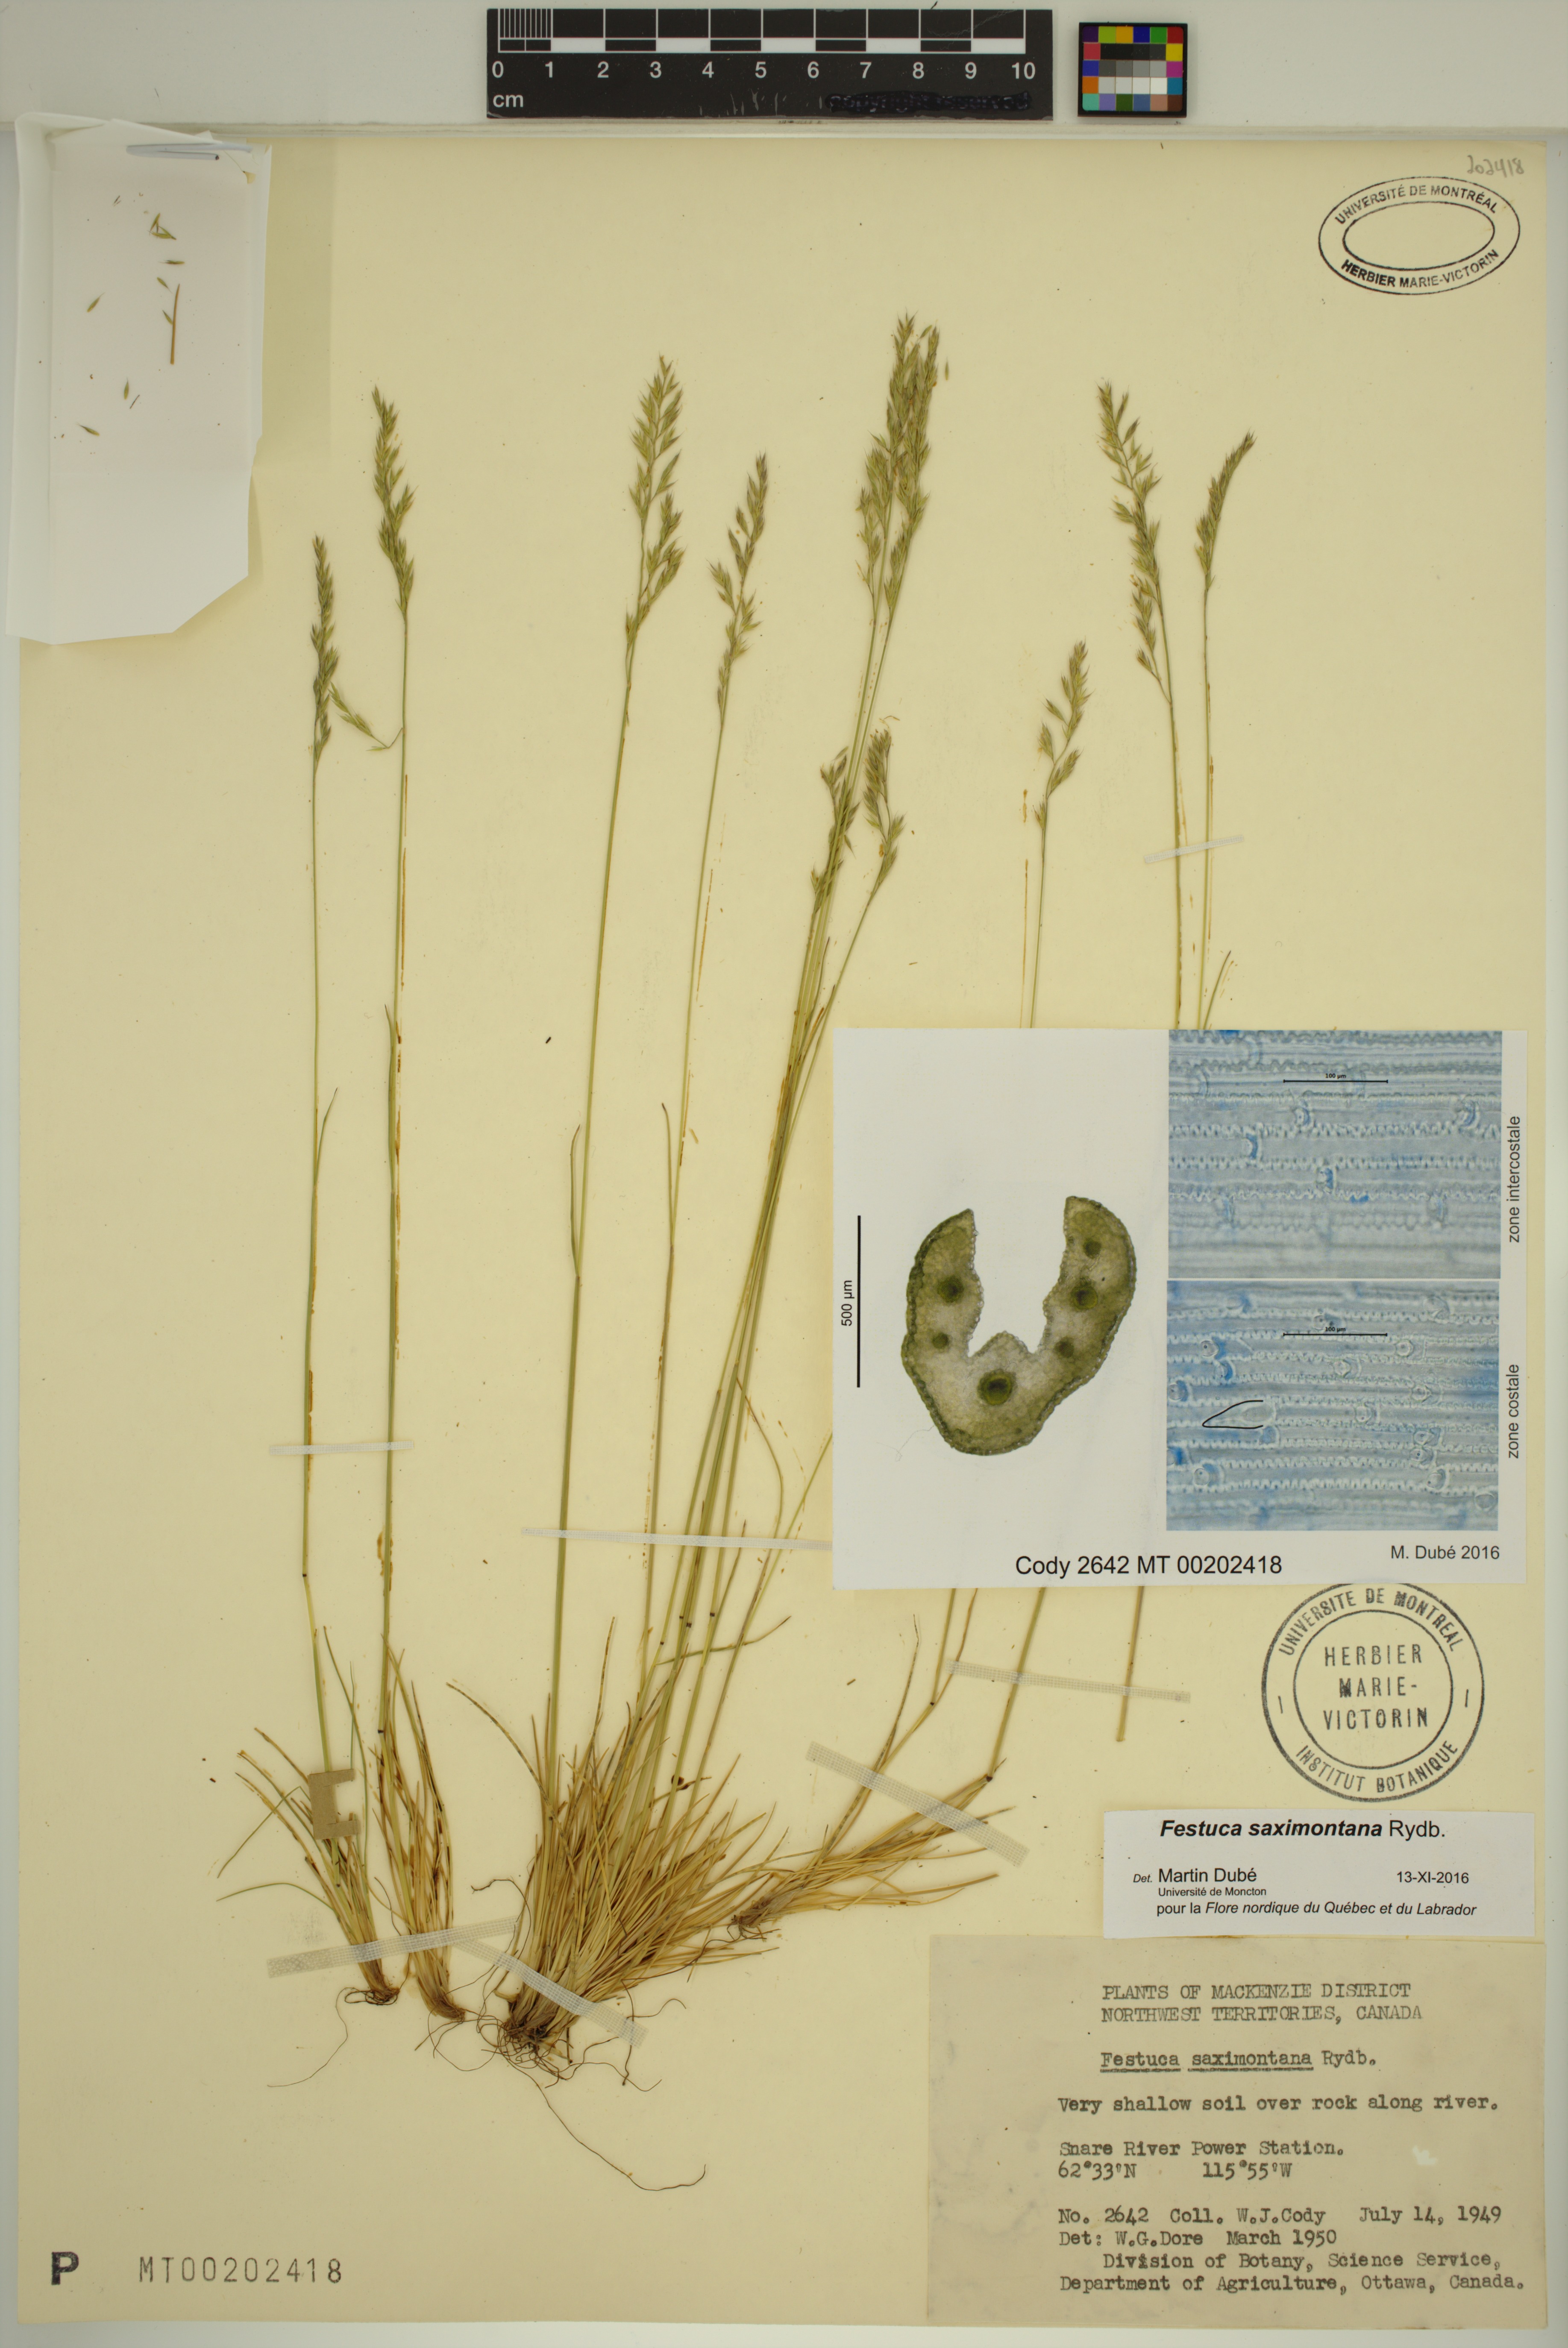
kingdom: Plantae
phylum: Tracheophyta
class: Liliopsida
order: Poales
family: Poaceae
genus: Festuca
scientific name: Festuca saximontana
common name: Mountain fescue
